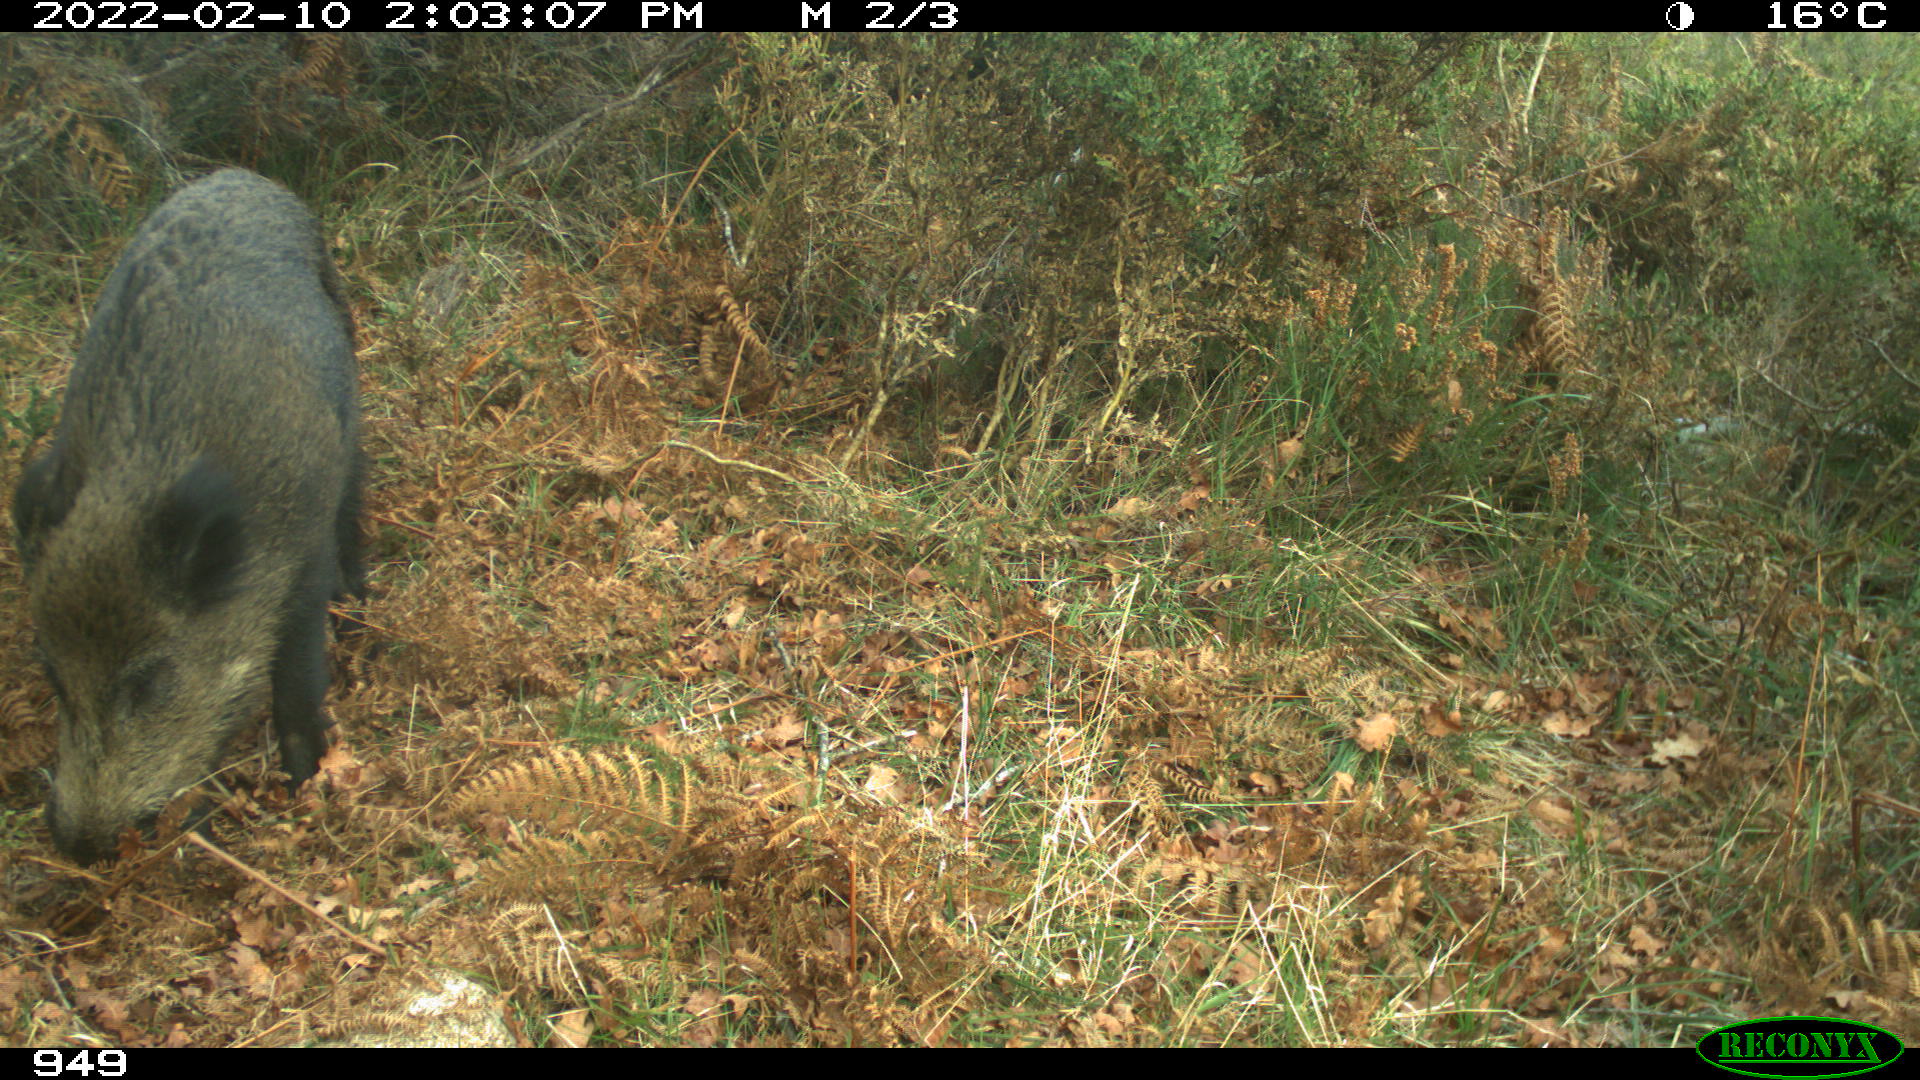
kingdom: Animalia
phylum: Chordata
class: Mammalia
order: Artiodactyla
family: Suidae
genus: Sus
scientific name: Sus scrofa
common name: Wild boar
